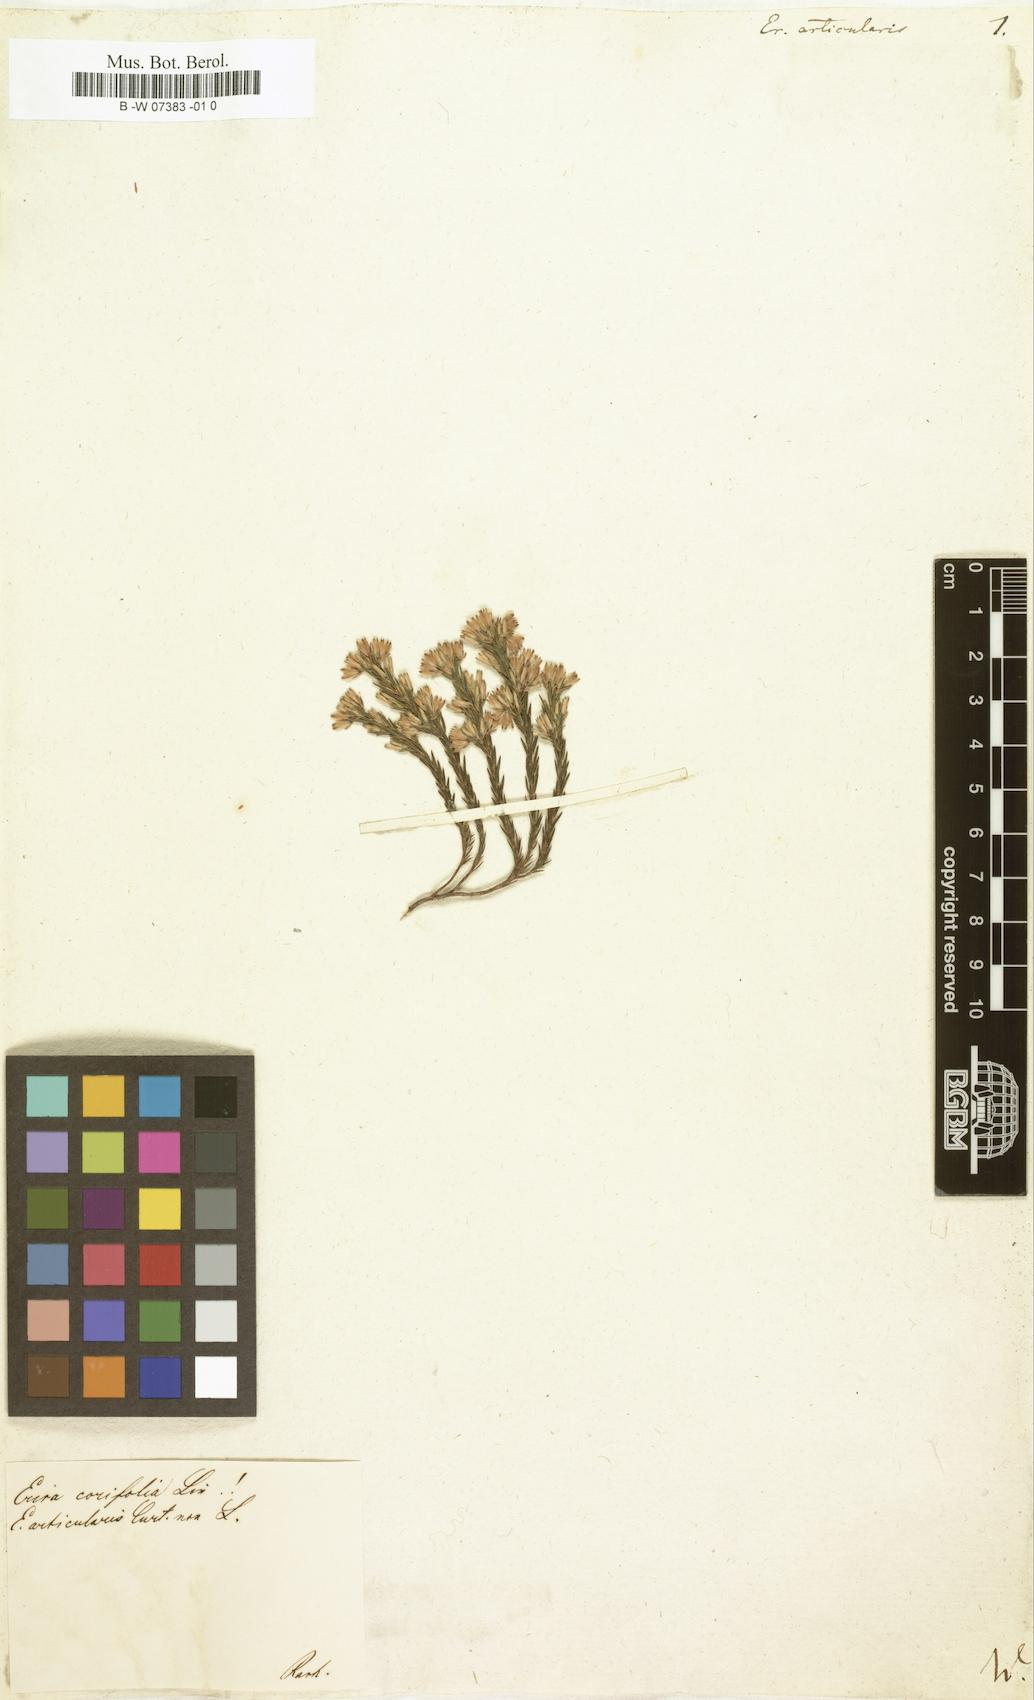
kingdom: Plantae
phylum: Tracheophyta
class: Magnoliopsida
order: Ericales
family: Ericaceae
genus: Erica
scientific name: Erica pulchella
